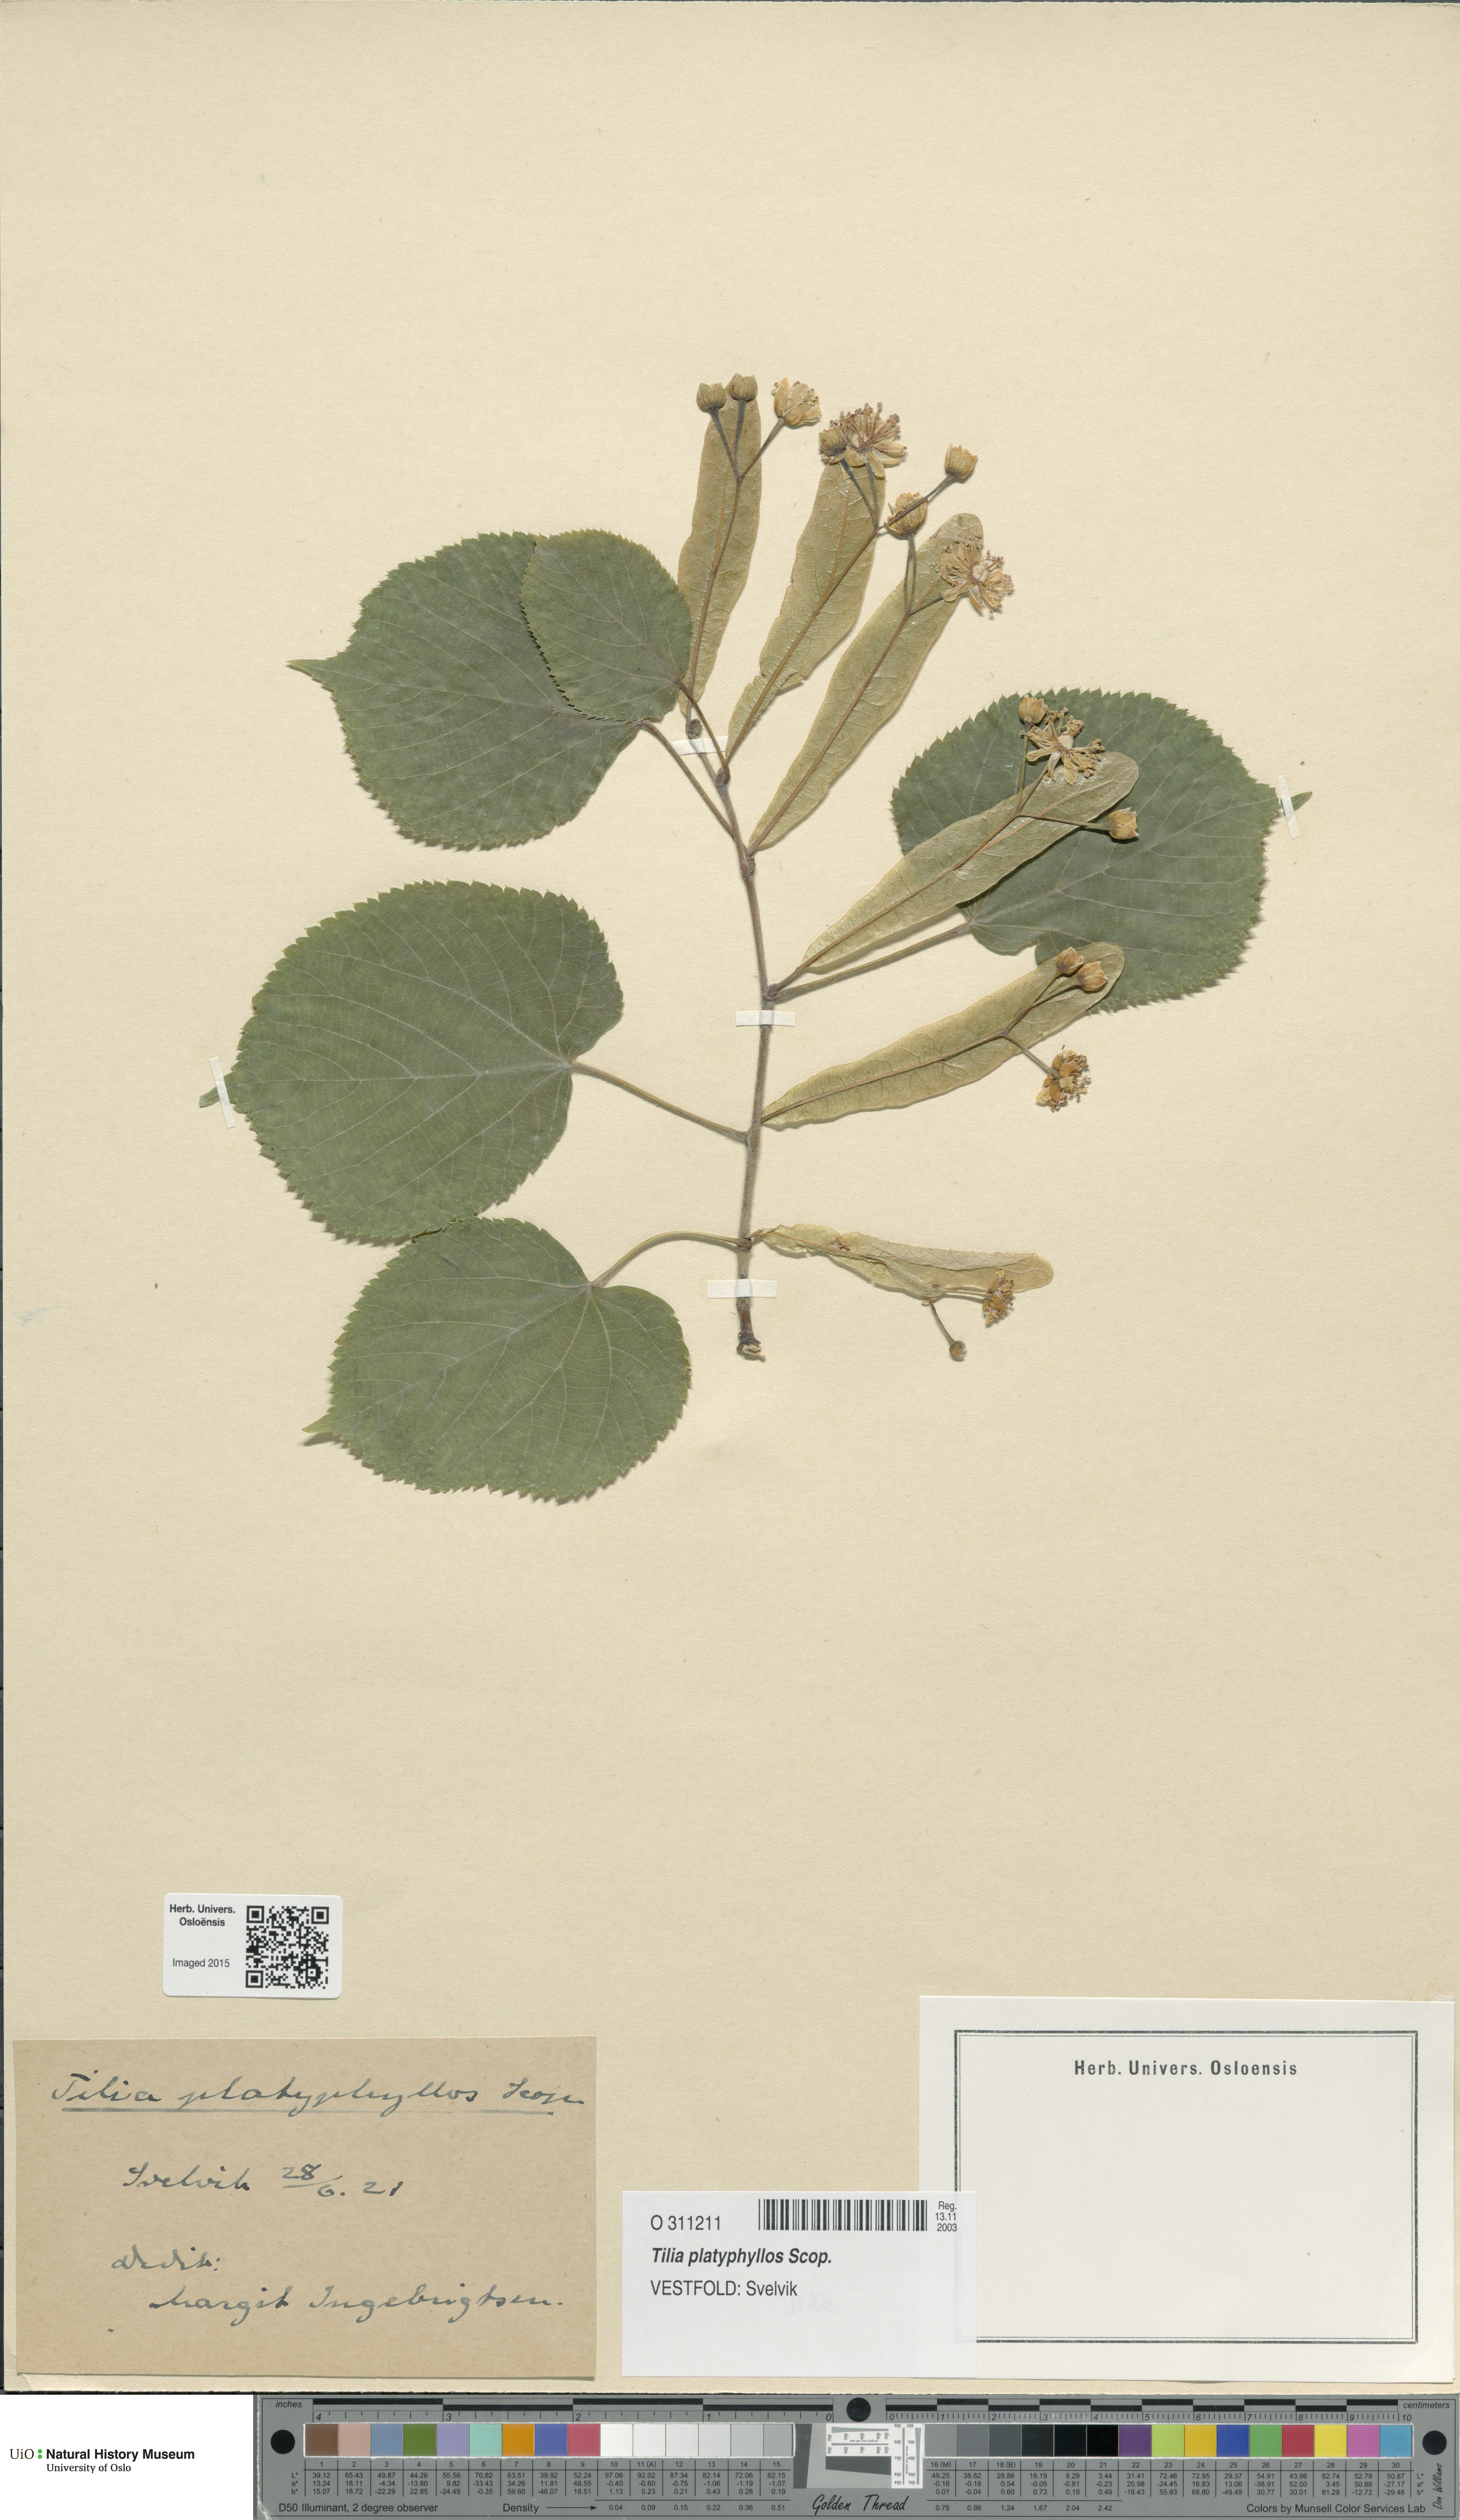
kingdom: Plantae
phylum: Tracheophyta
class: Magnoliopsida
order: Malvales
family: Malvaceae
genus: Tilia
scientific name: Tilia platyphyllos
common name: Large-leaved lime
